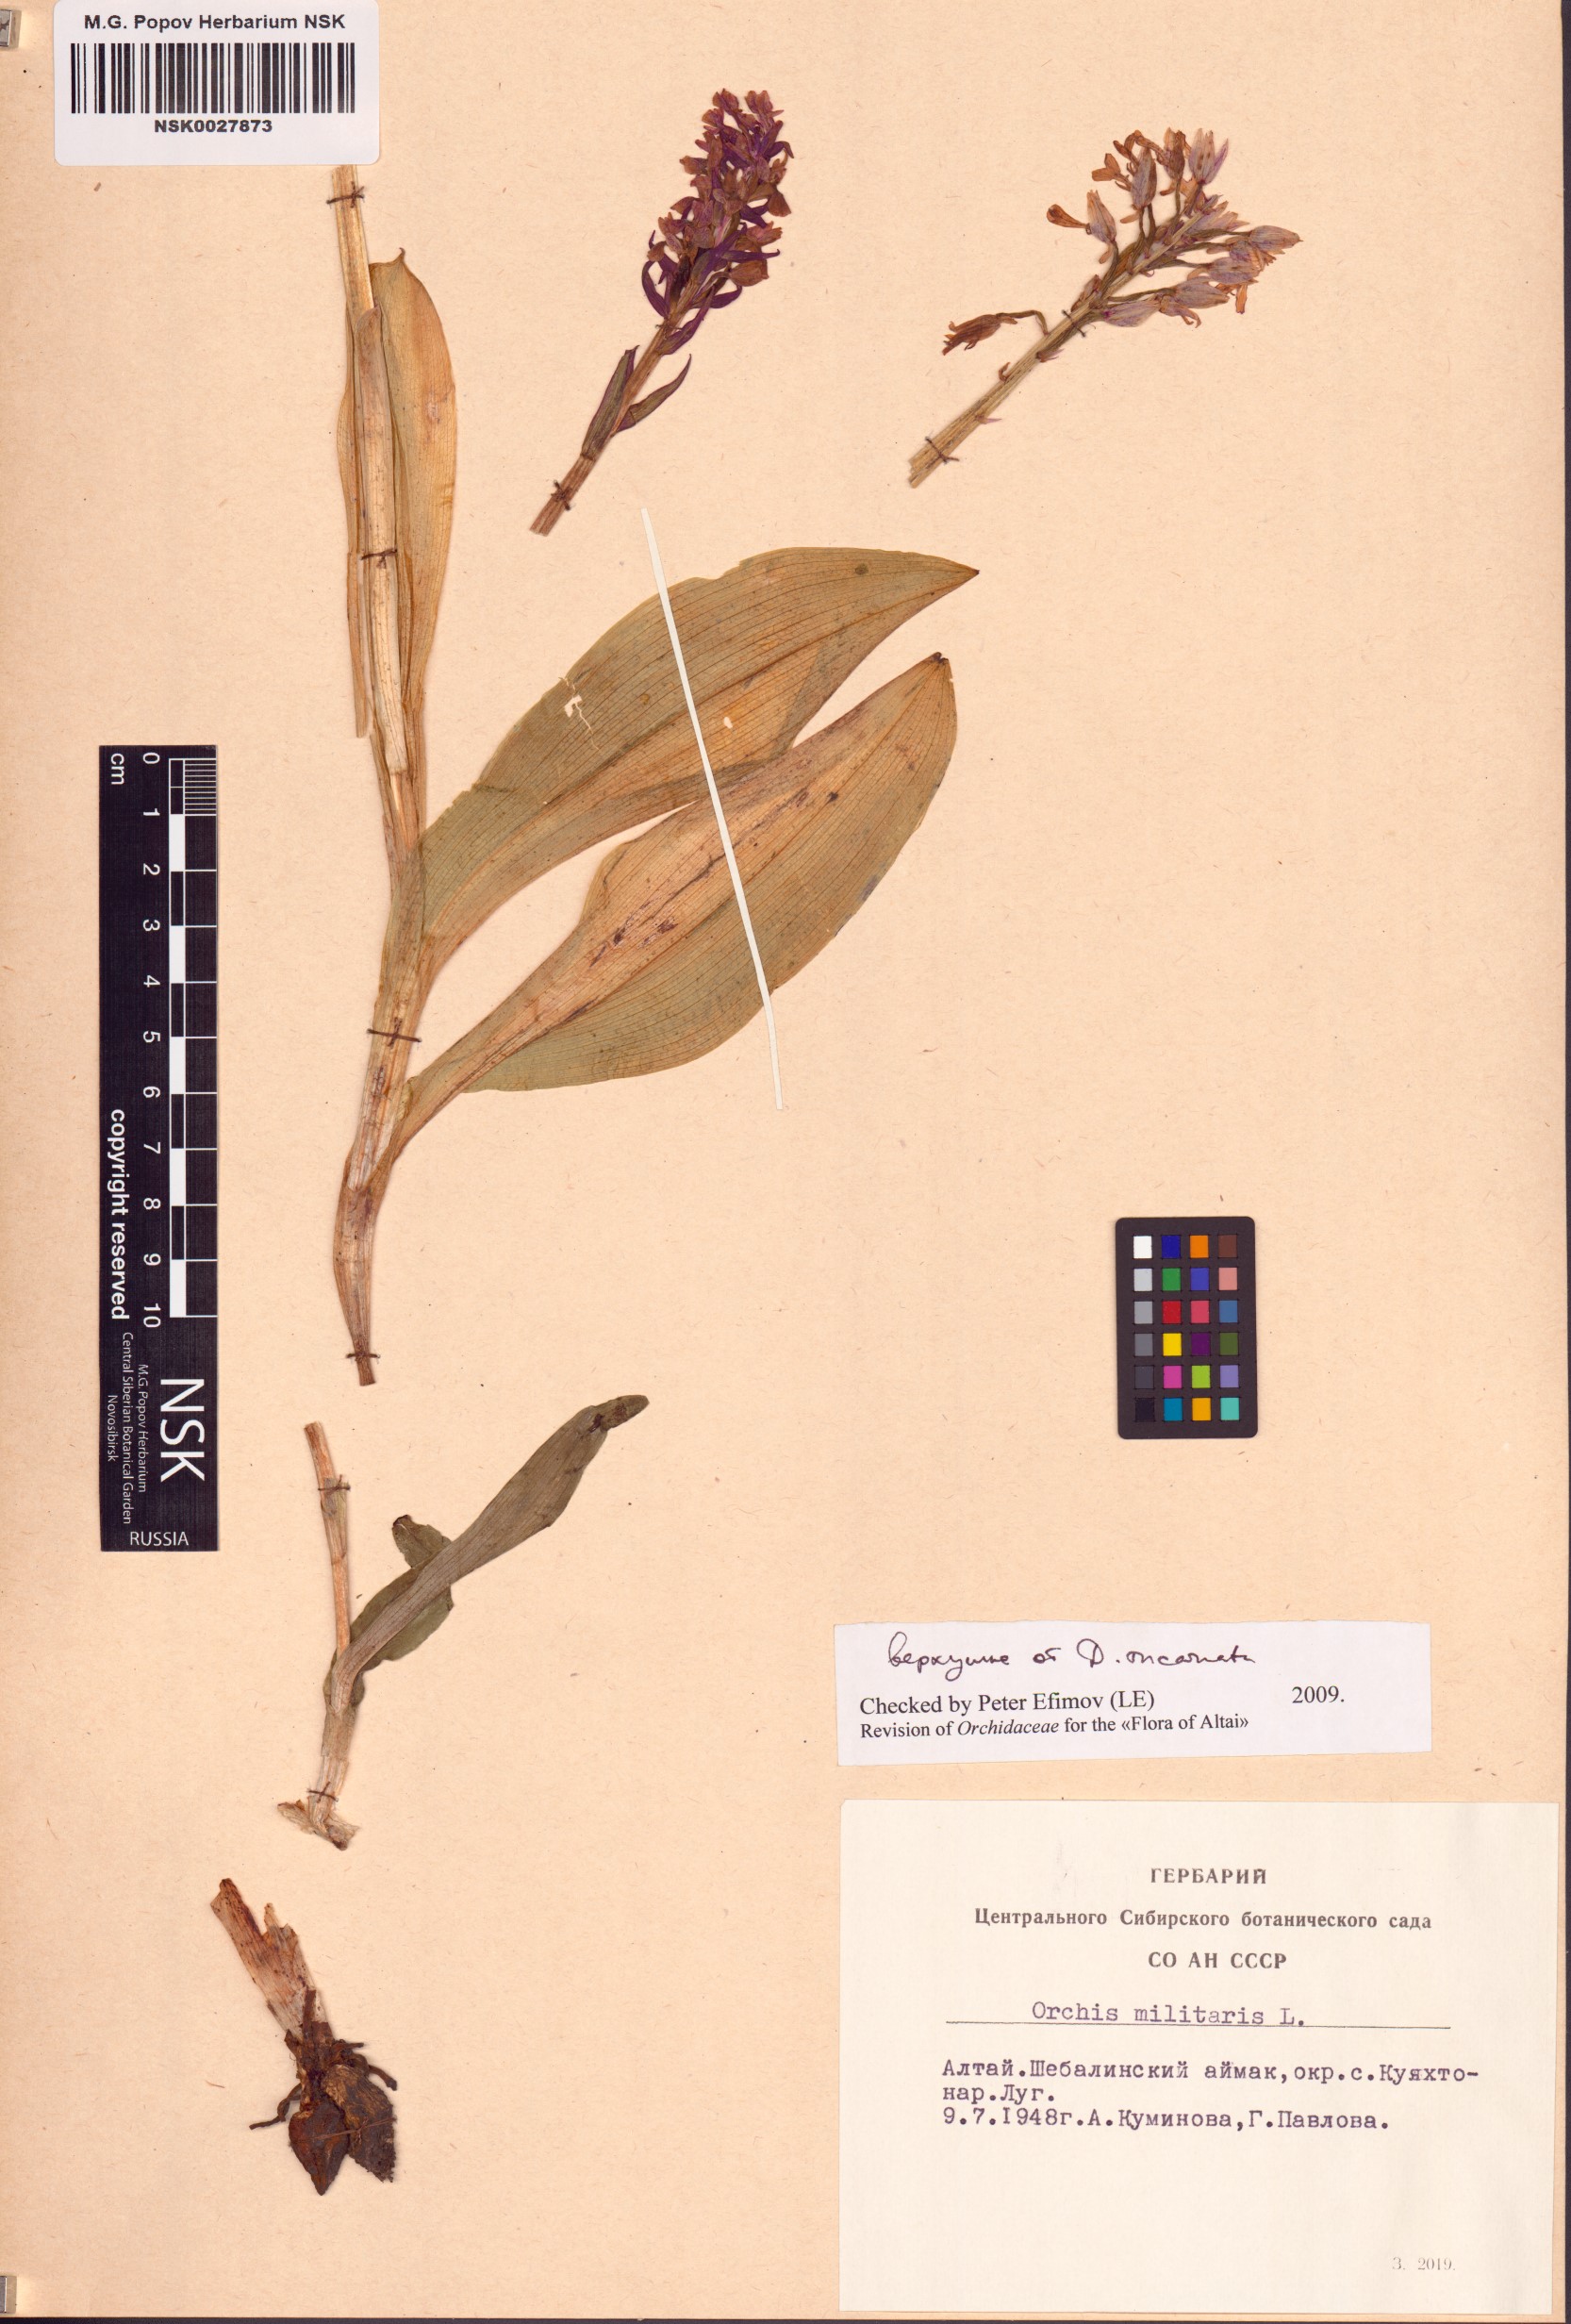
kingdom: Plantae
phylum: Tracheophyta
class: Liliopsida
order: Asparagales
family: Orchidaceae
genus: Orchis
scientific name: Orchis militaris
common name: Military orchid
